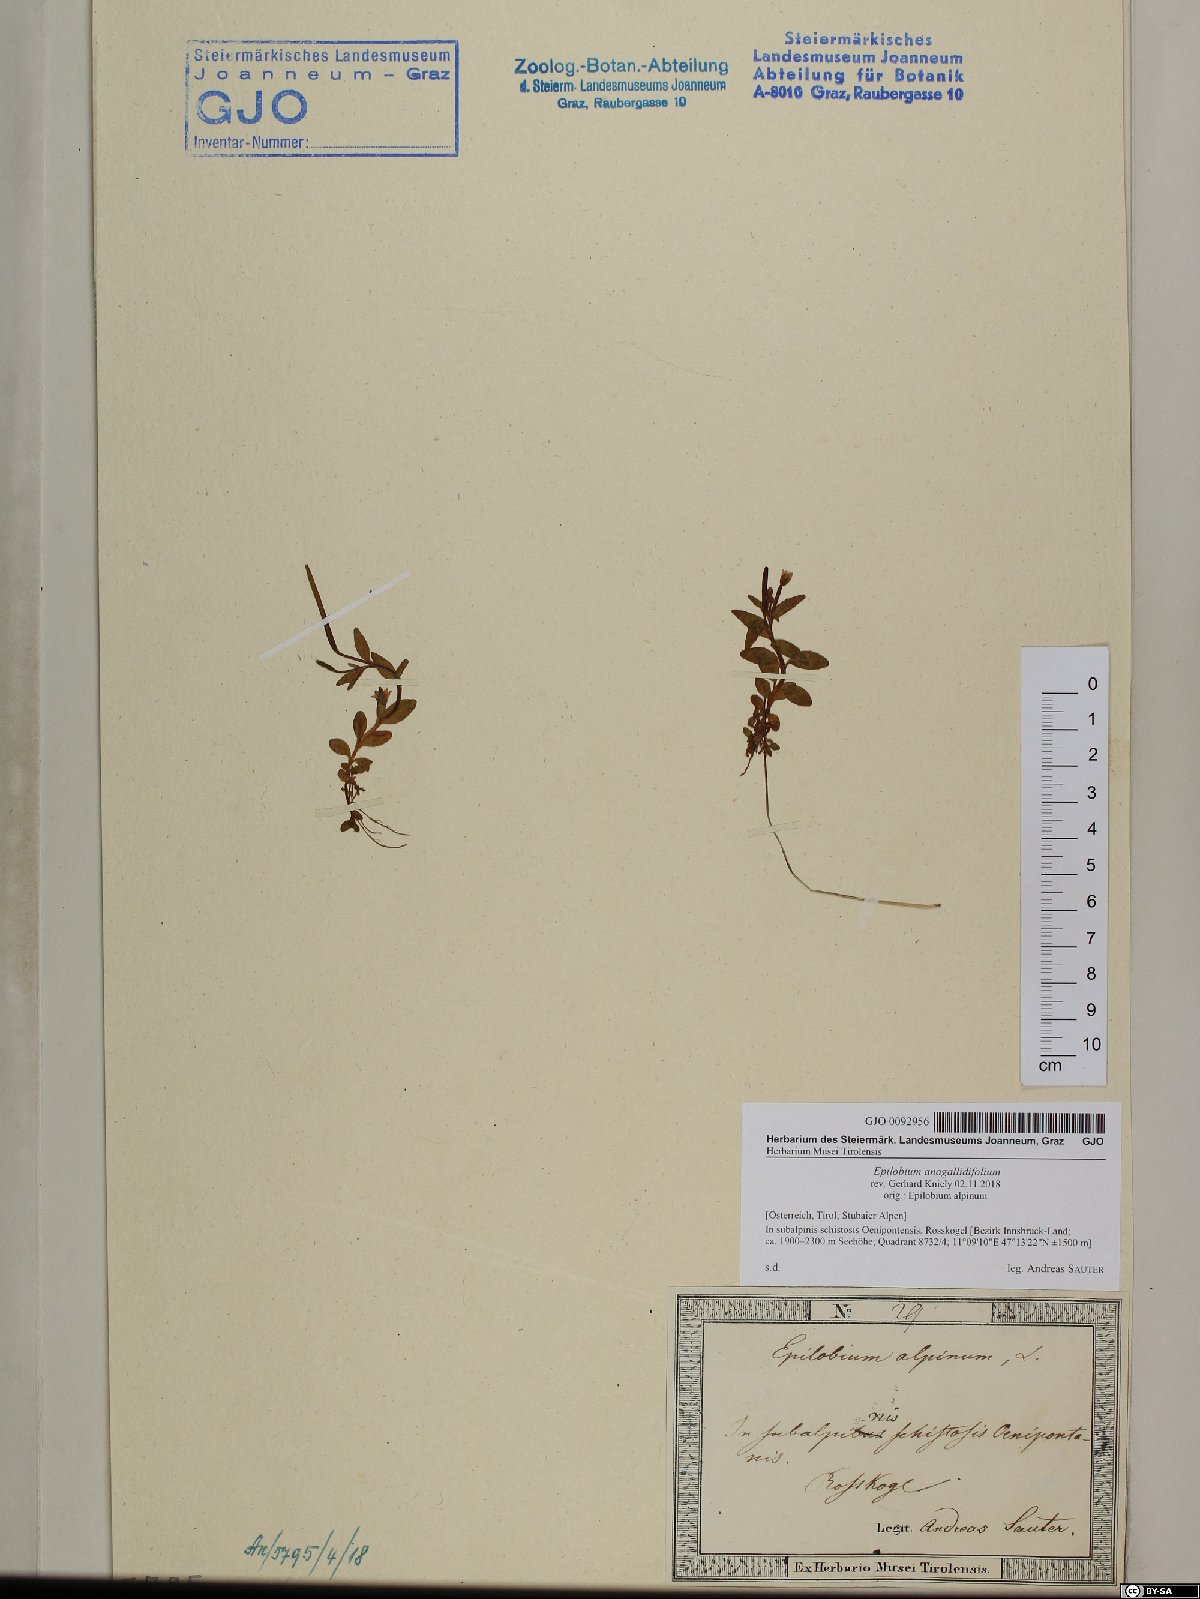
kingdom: Plantae
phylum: Tracheophyta
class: Magnoliopsida
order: Myrtales
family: Onagraceae
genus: Epilobium
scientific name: Epilobium anagallidifolium
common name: Alpine willowherb
